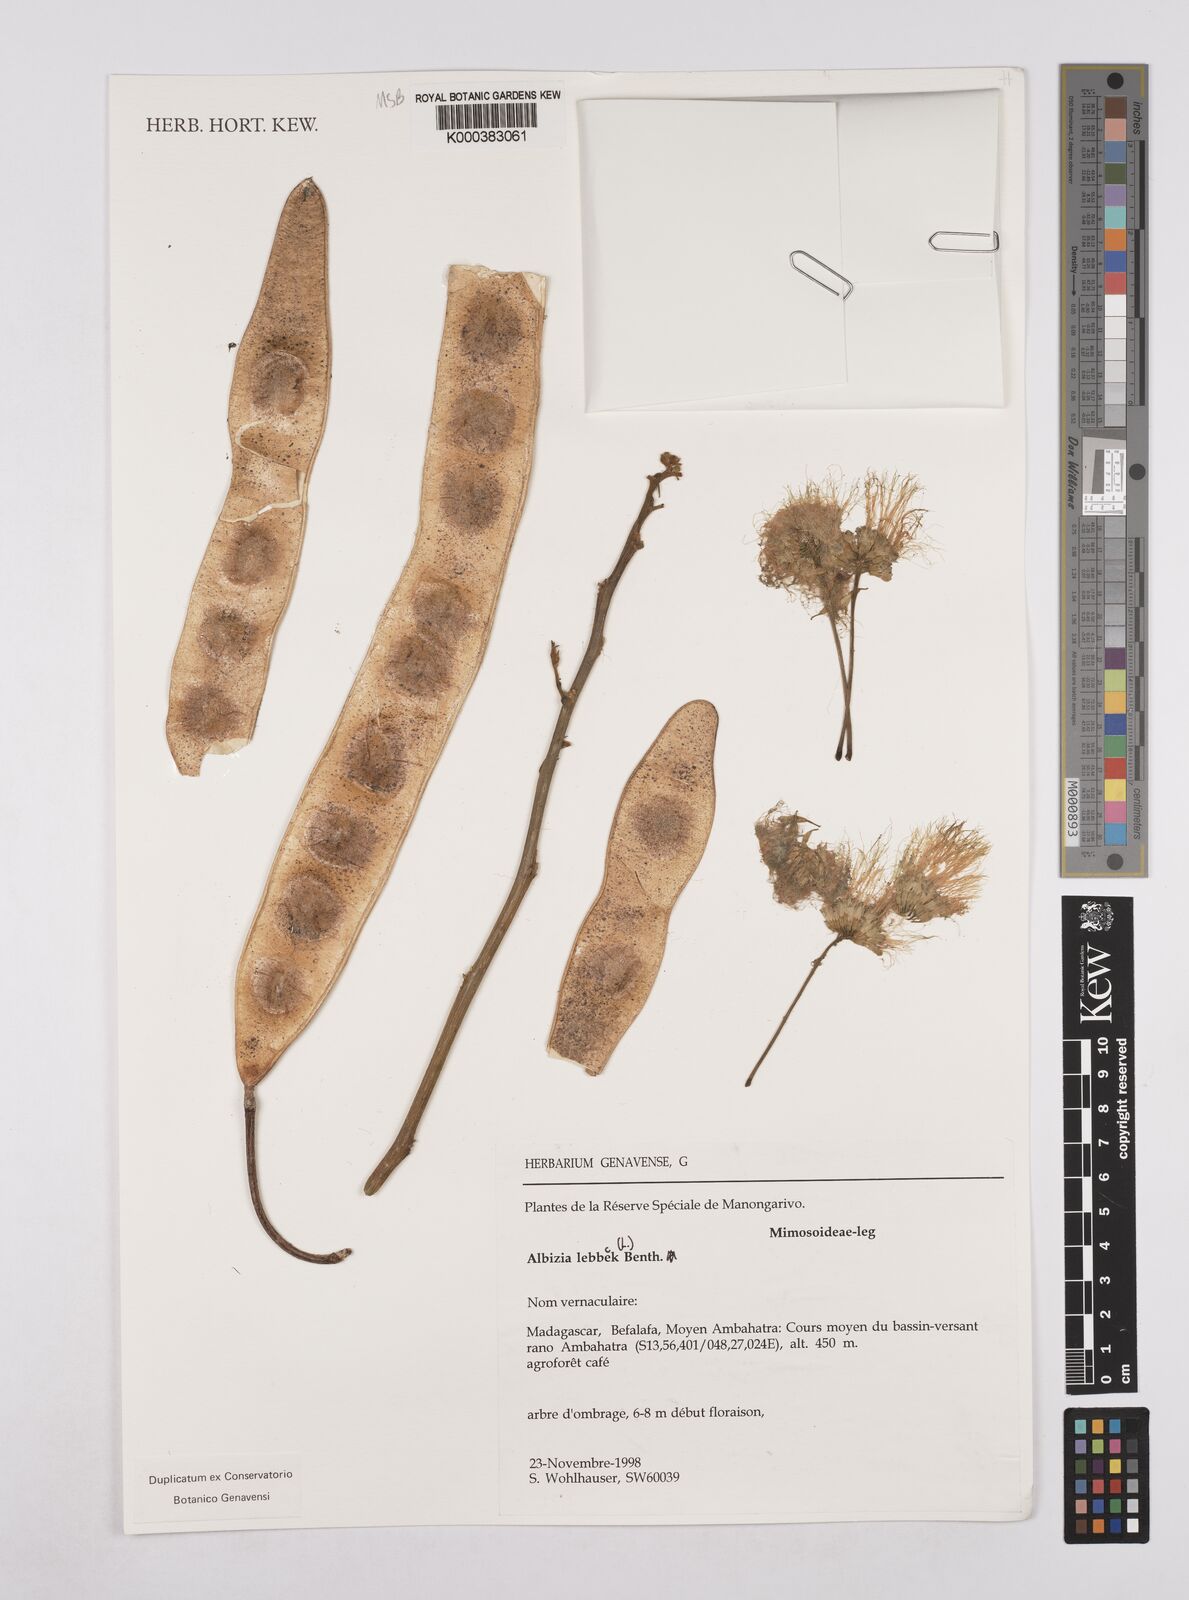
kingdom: Plantae
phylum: Tracheophyta
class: Magnoliopsida
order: Fabales
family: Fabaceae
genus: Albizia
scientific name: Albizia lebbeck
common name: Woman's tongue
